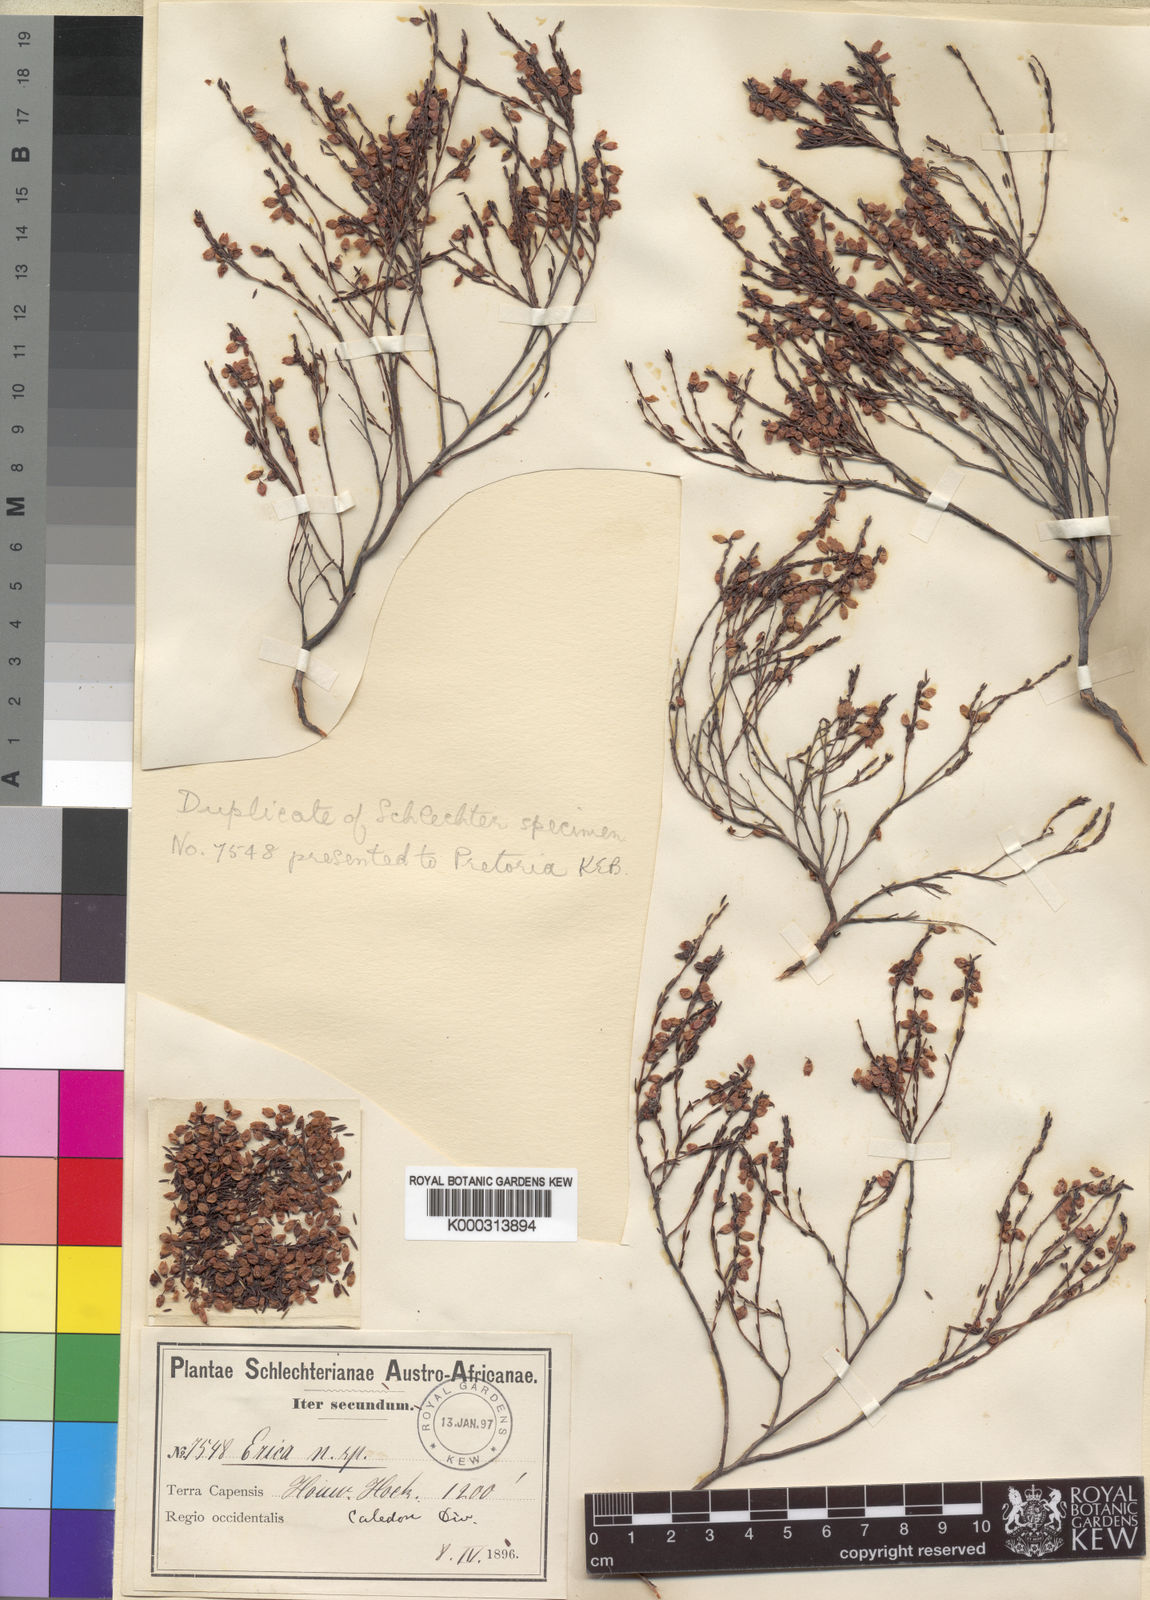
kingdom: Plantae
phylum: Tracheophyta
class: Magnoliopsida
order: Ericales
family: Ericaceae
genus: Erica
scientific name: Erica rhodopis
